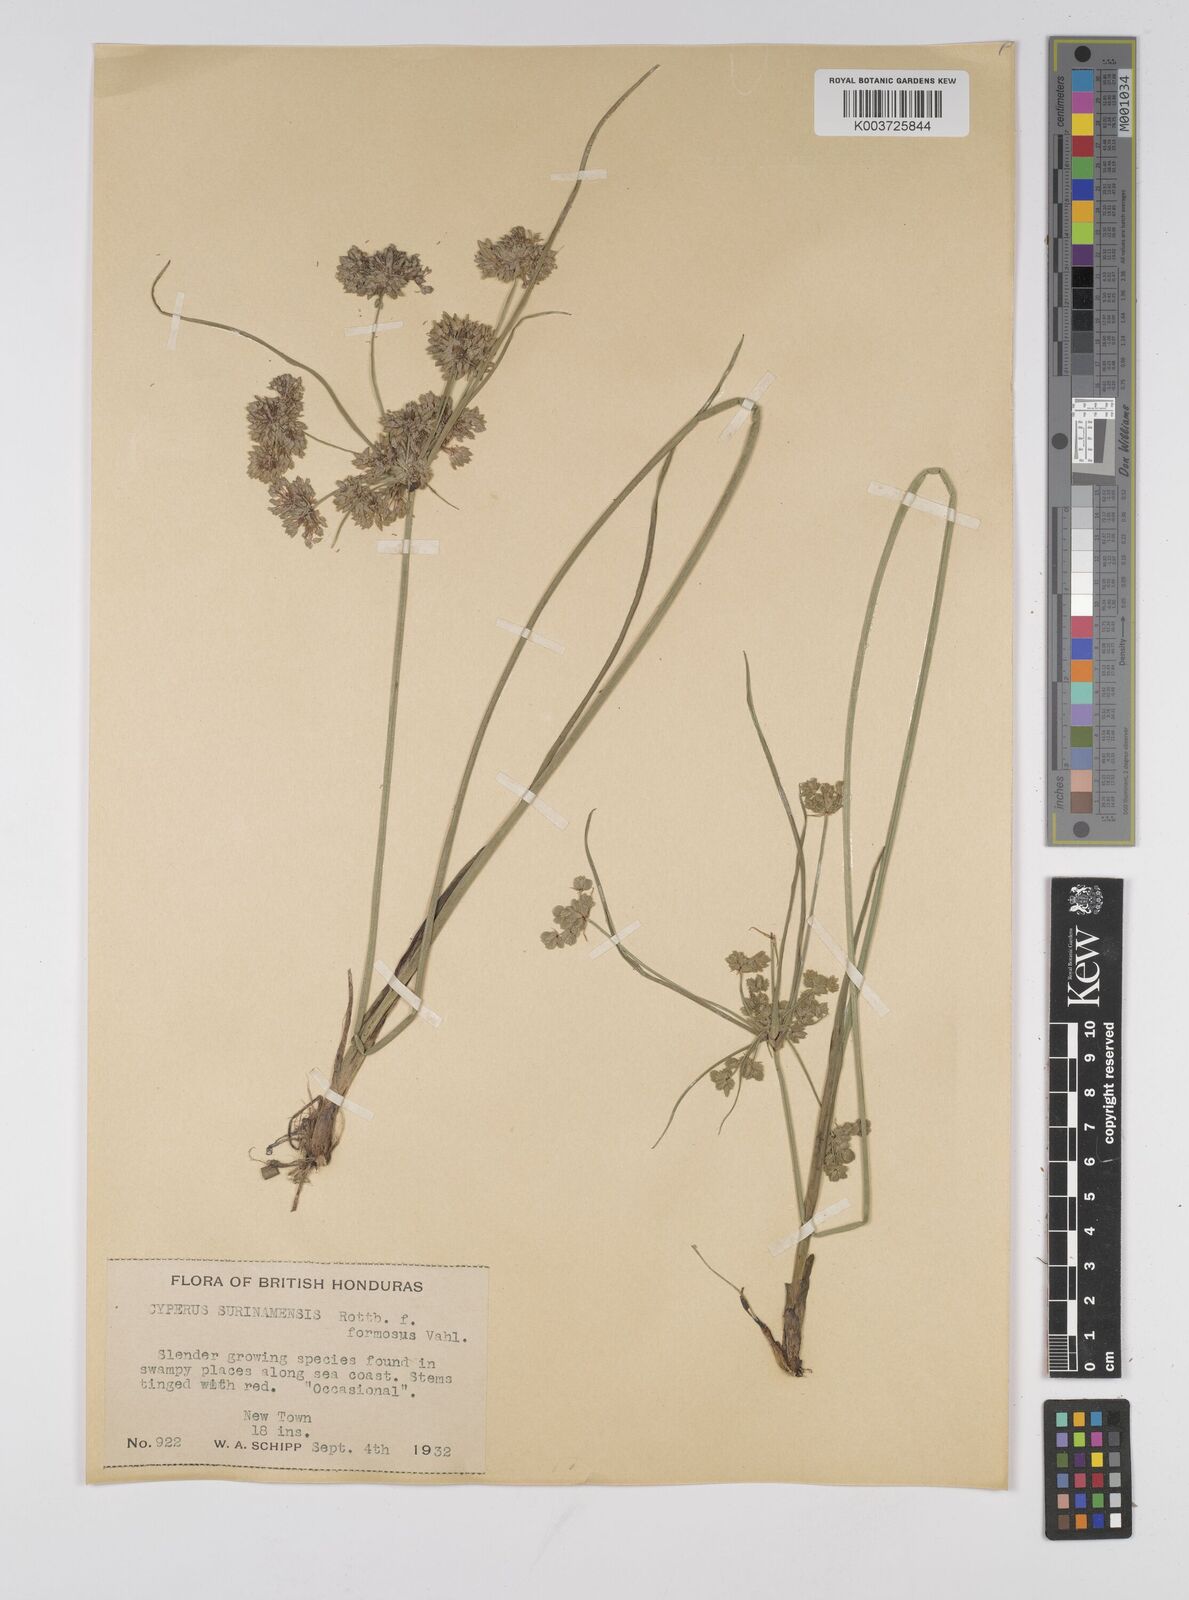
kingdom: Plantae
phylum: Tracheophyta
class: Liliopsida
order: Poales
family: Cyperaceae
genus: Cyperus
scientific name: Cyperus surinamensis
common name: Tropical flat sedge
